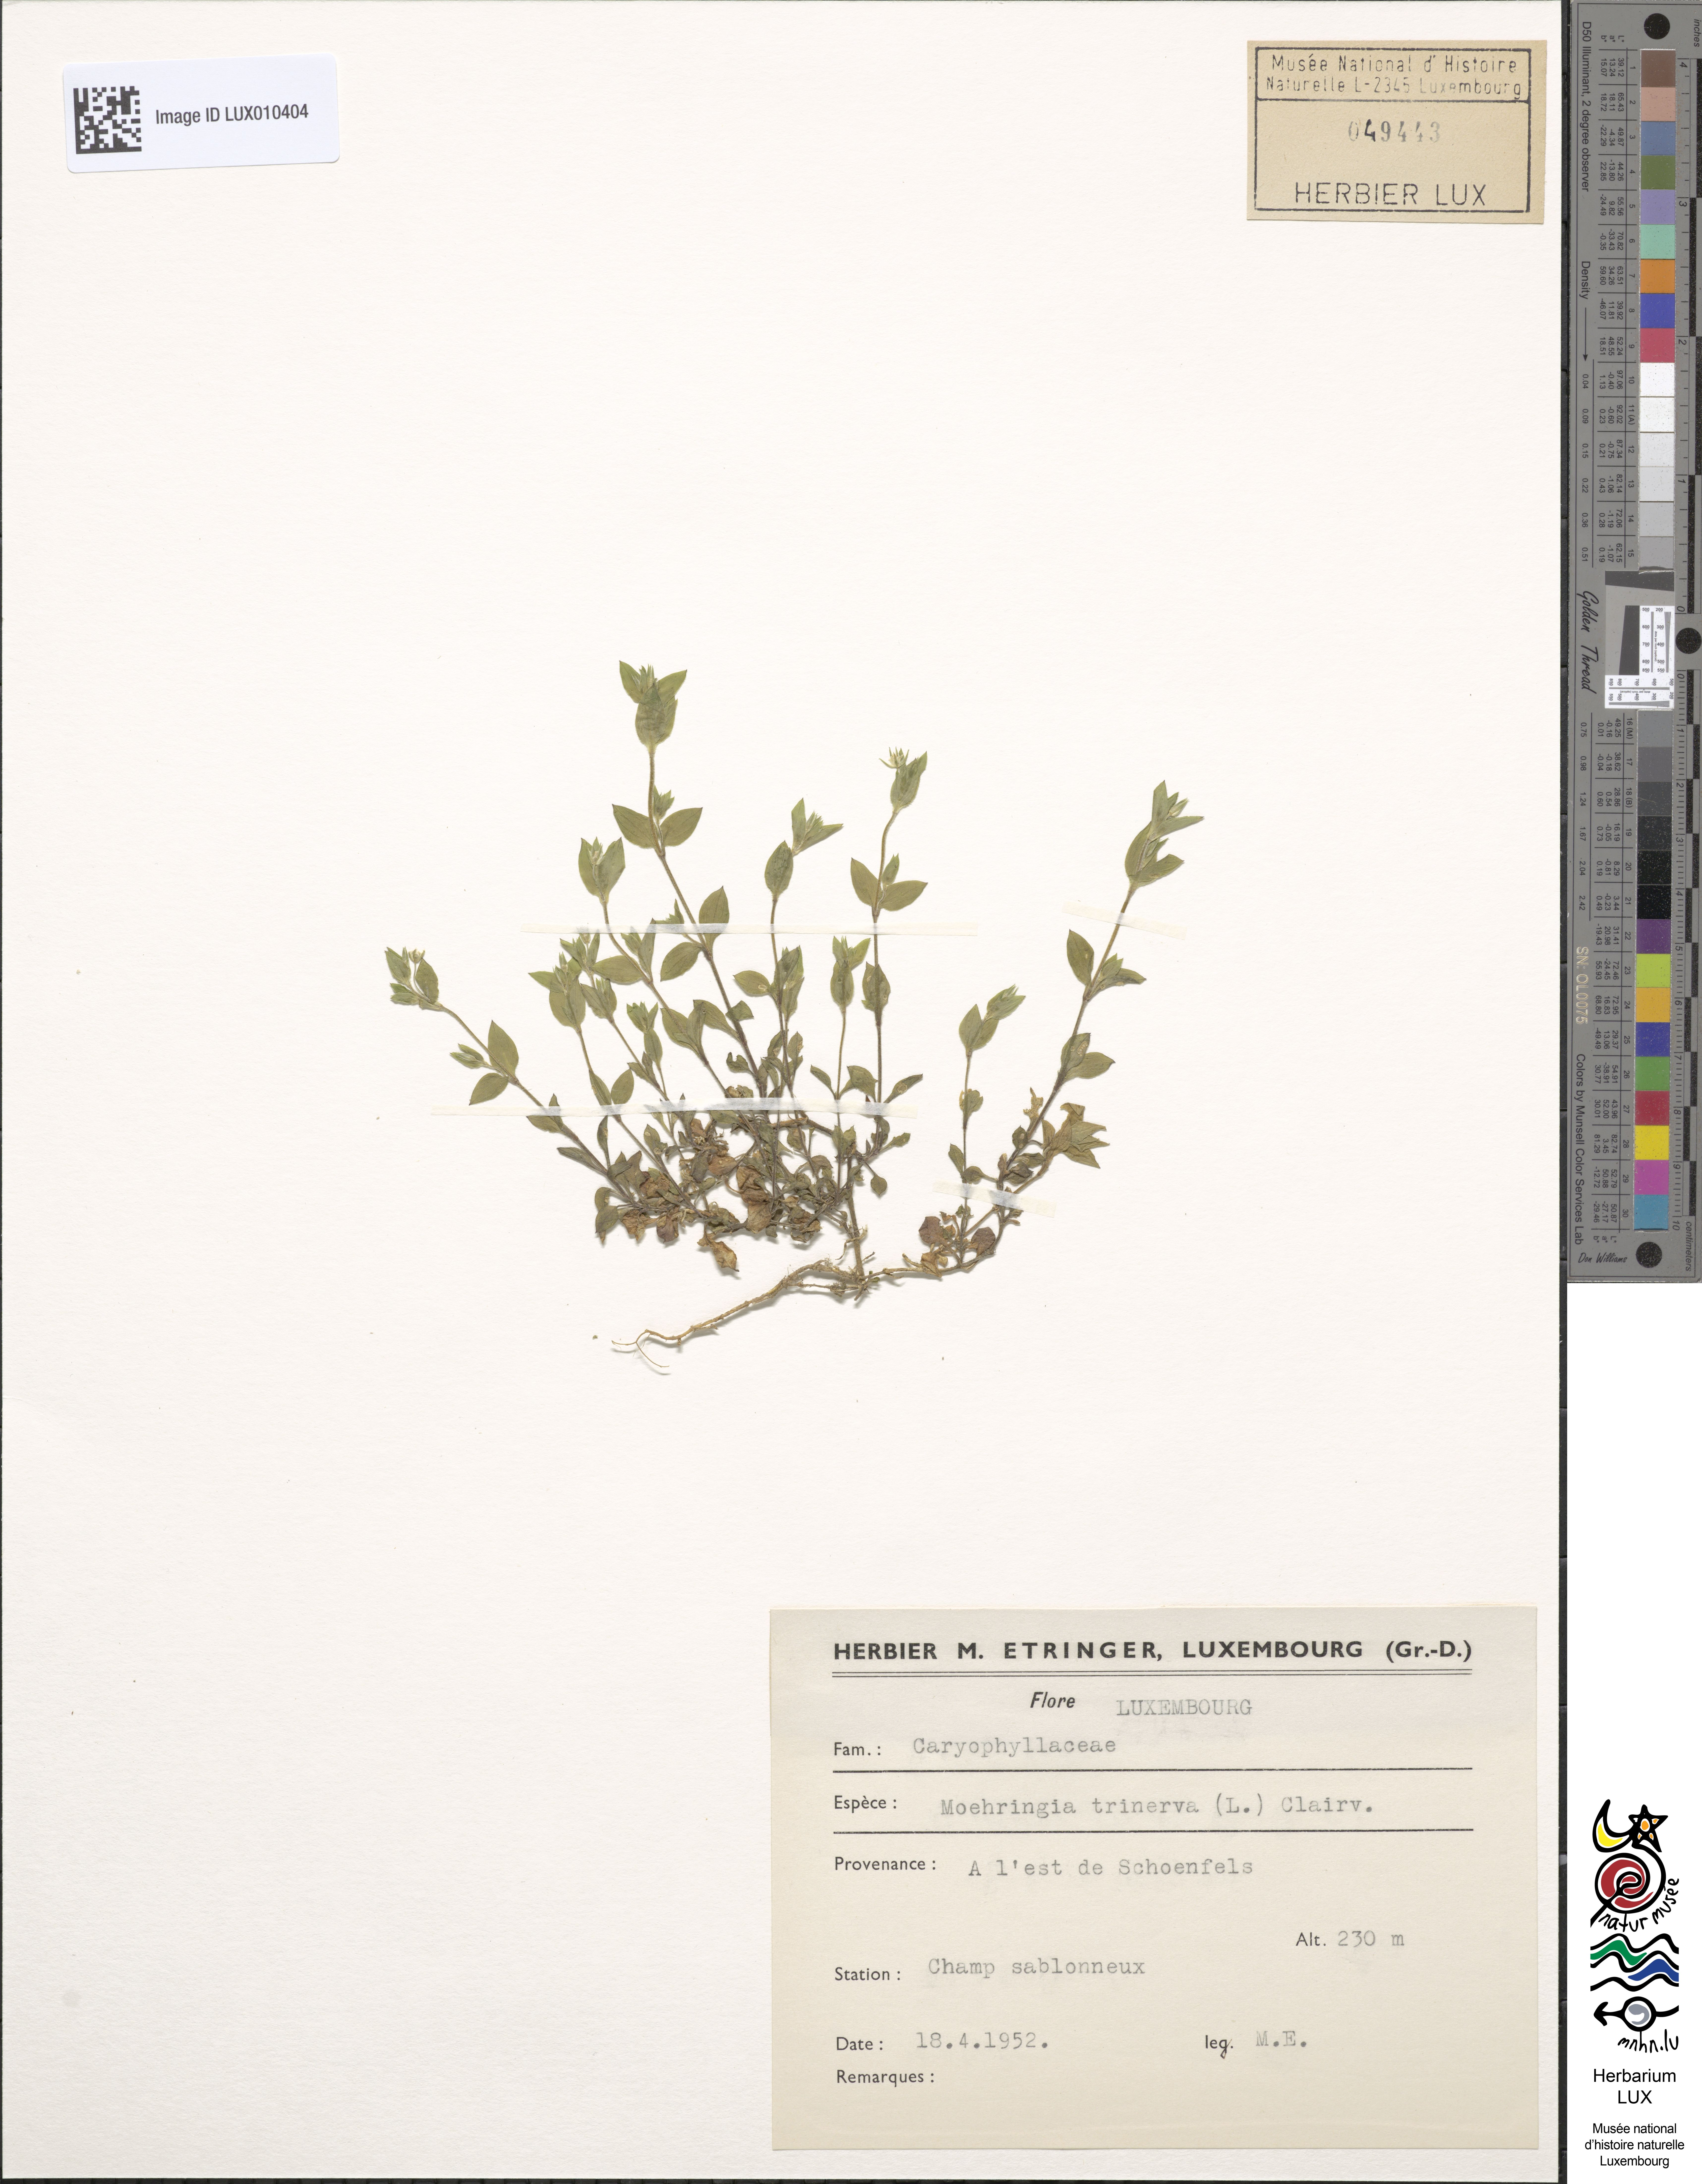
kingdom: Plantae
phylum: Tracheophyta
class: Magnoliopsida
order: Caryophyllales
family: Caryophyllaceae
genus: Moehringia
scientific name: Moehringia trinervia
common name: Three-nerved sandwort
